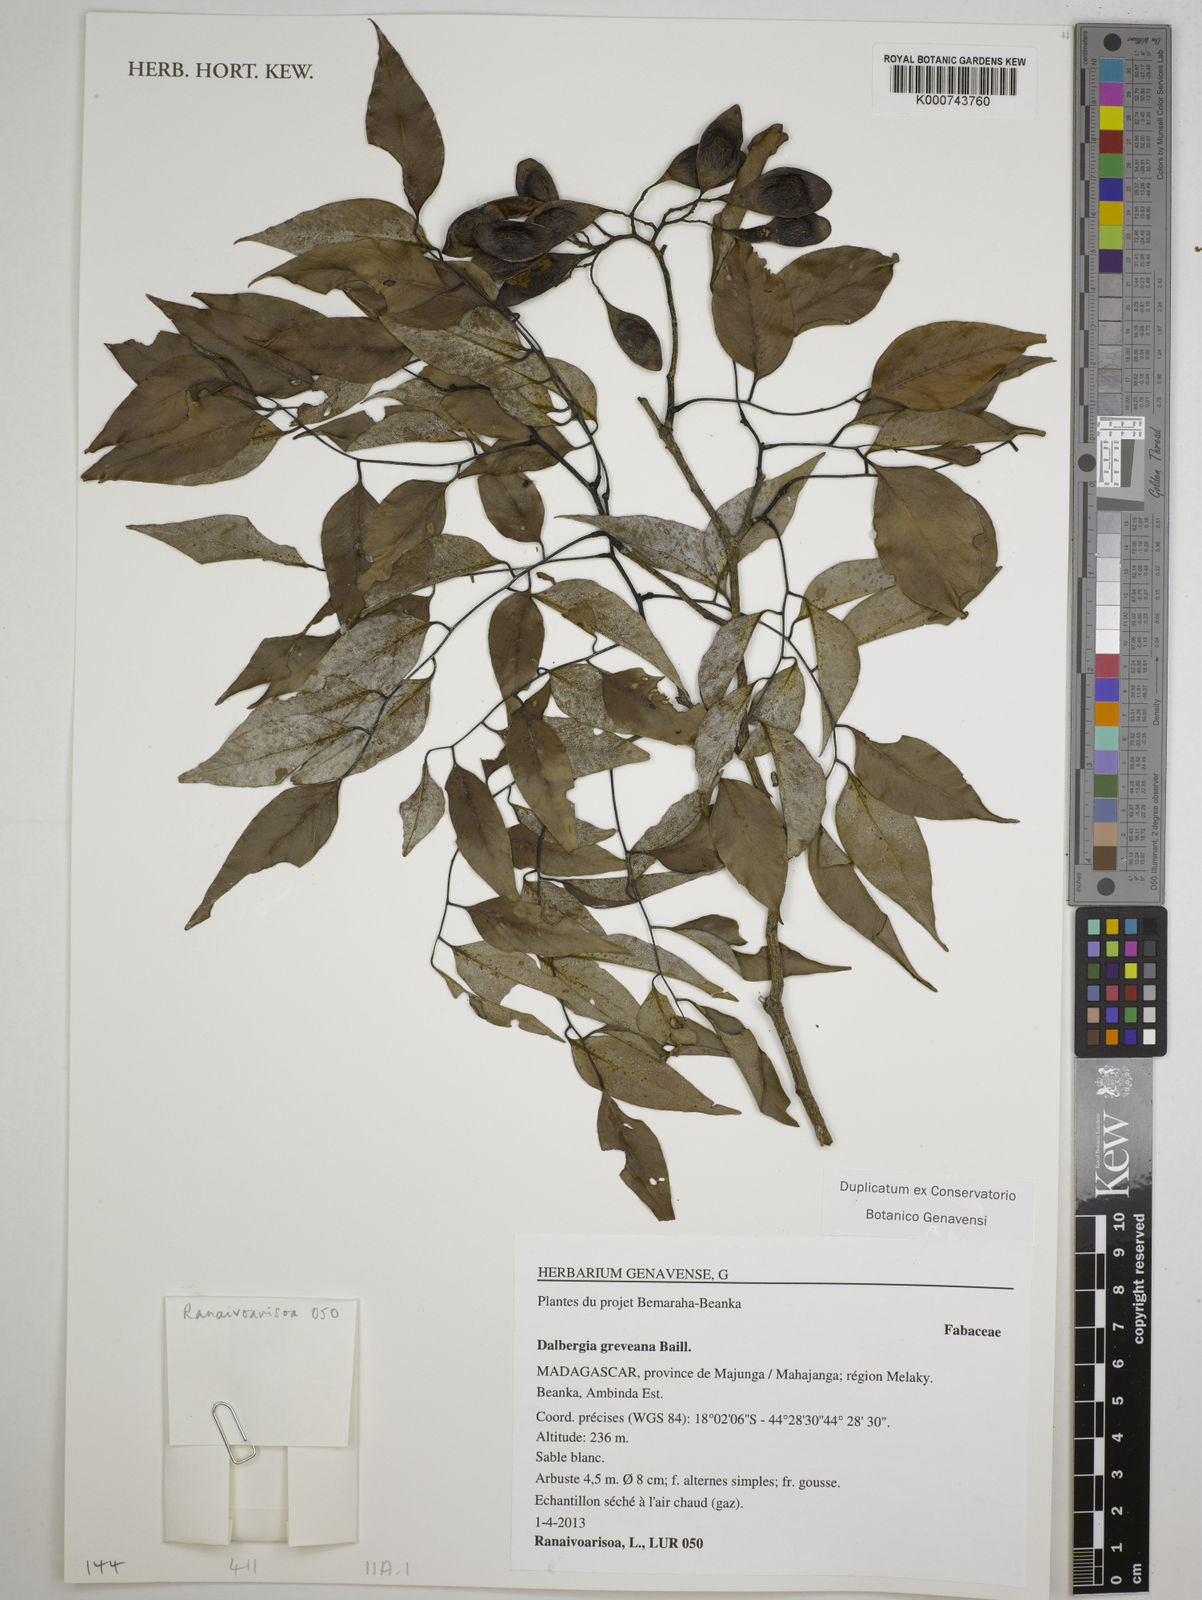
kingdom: Plantae
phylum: Tracheophyta
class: Magnoliopsida
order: Fabales
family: Fabaceae
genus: Dalbergia
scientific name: Dalbergia greveana
